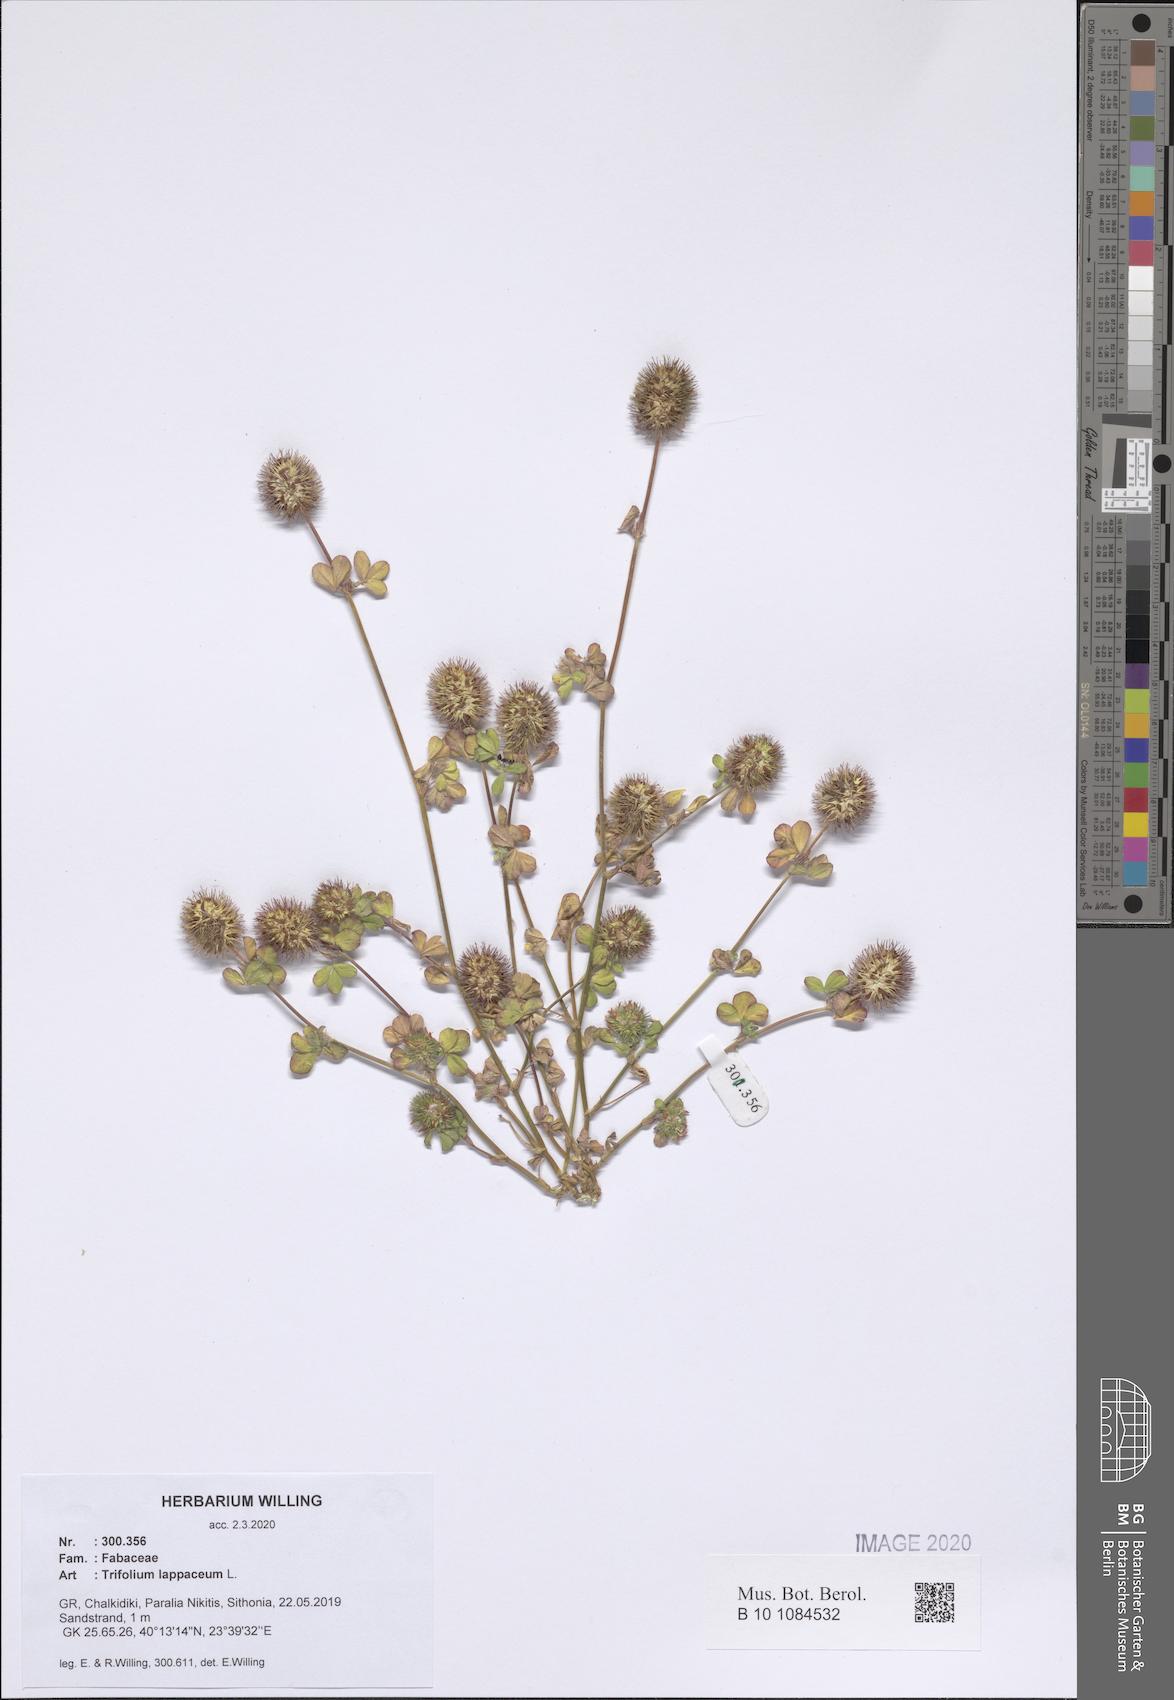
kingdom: Plantae
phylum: Tracheophyta
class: Magnoliopsida
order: Fabales
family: Fabaceae
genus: Trifolium
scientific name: Trifolium lappaceum
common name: Bur clover
